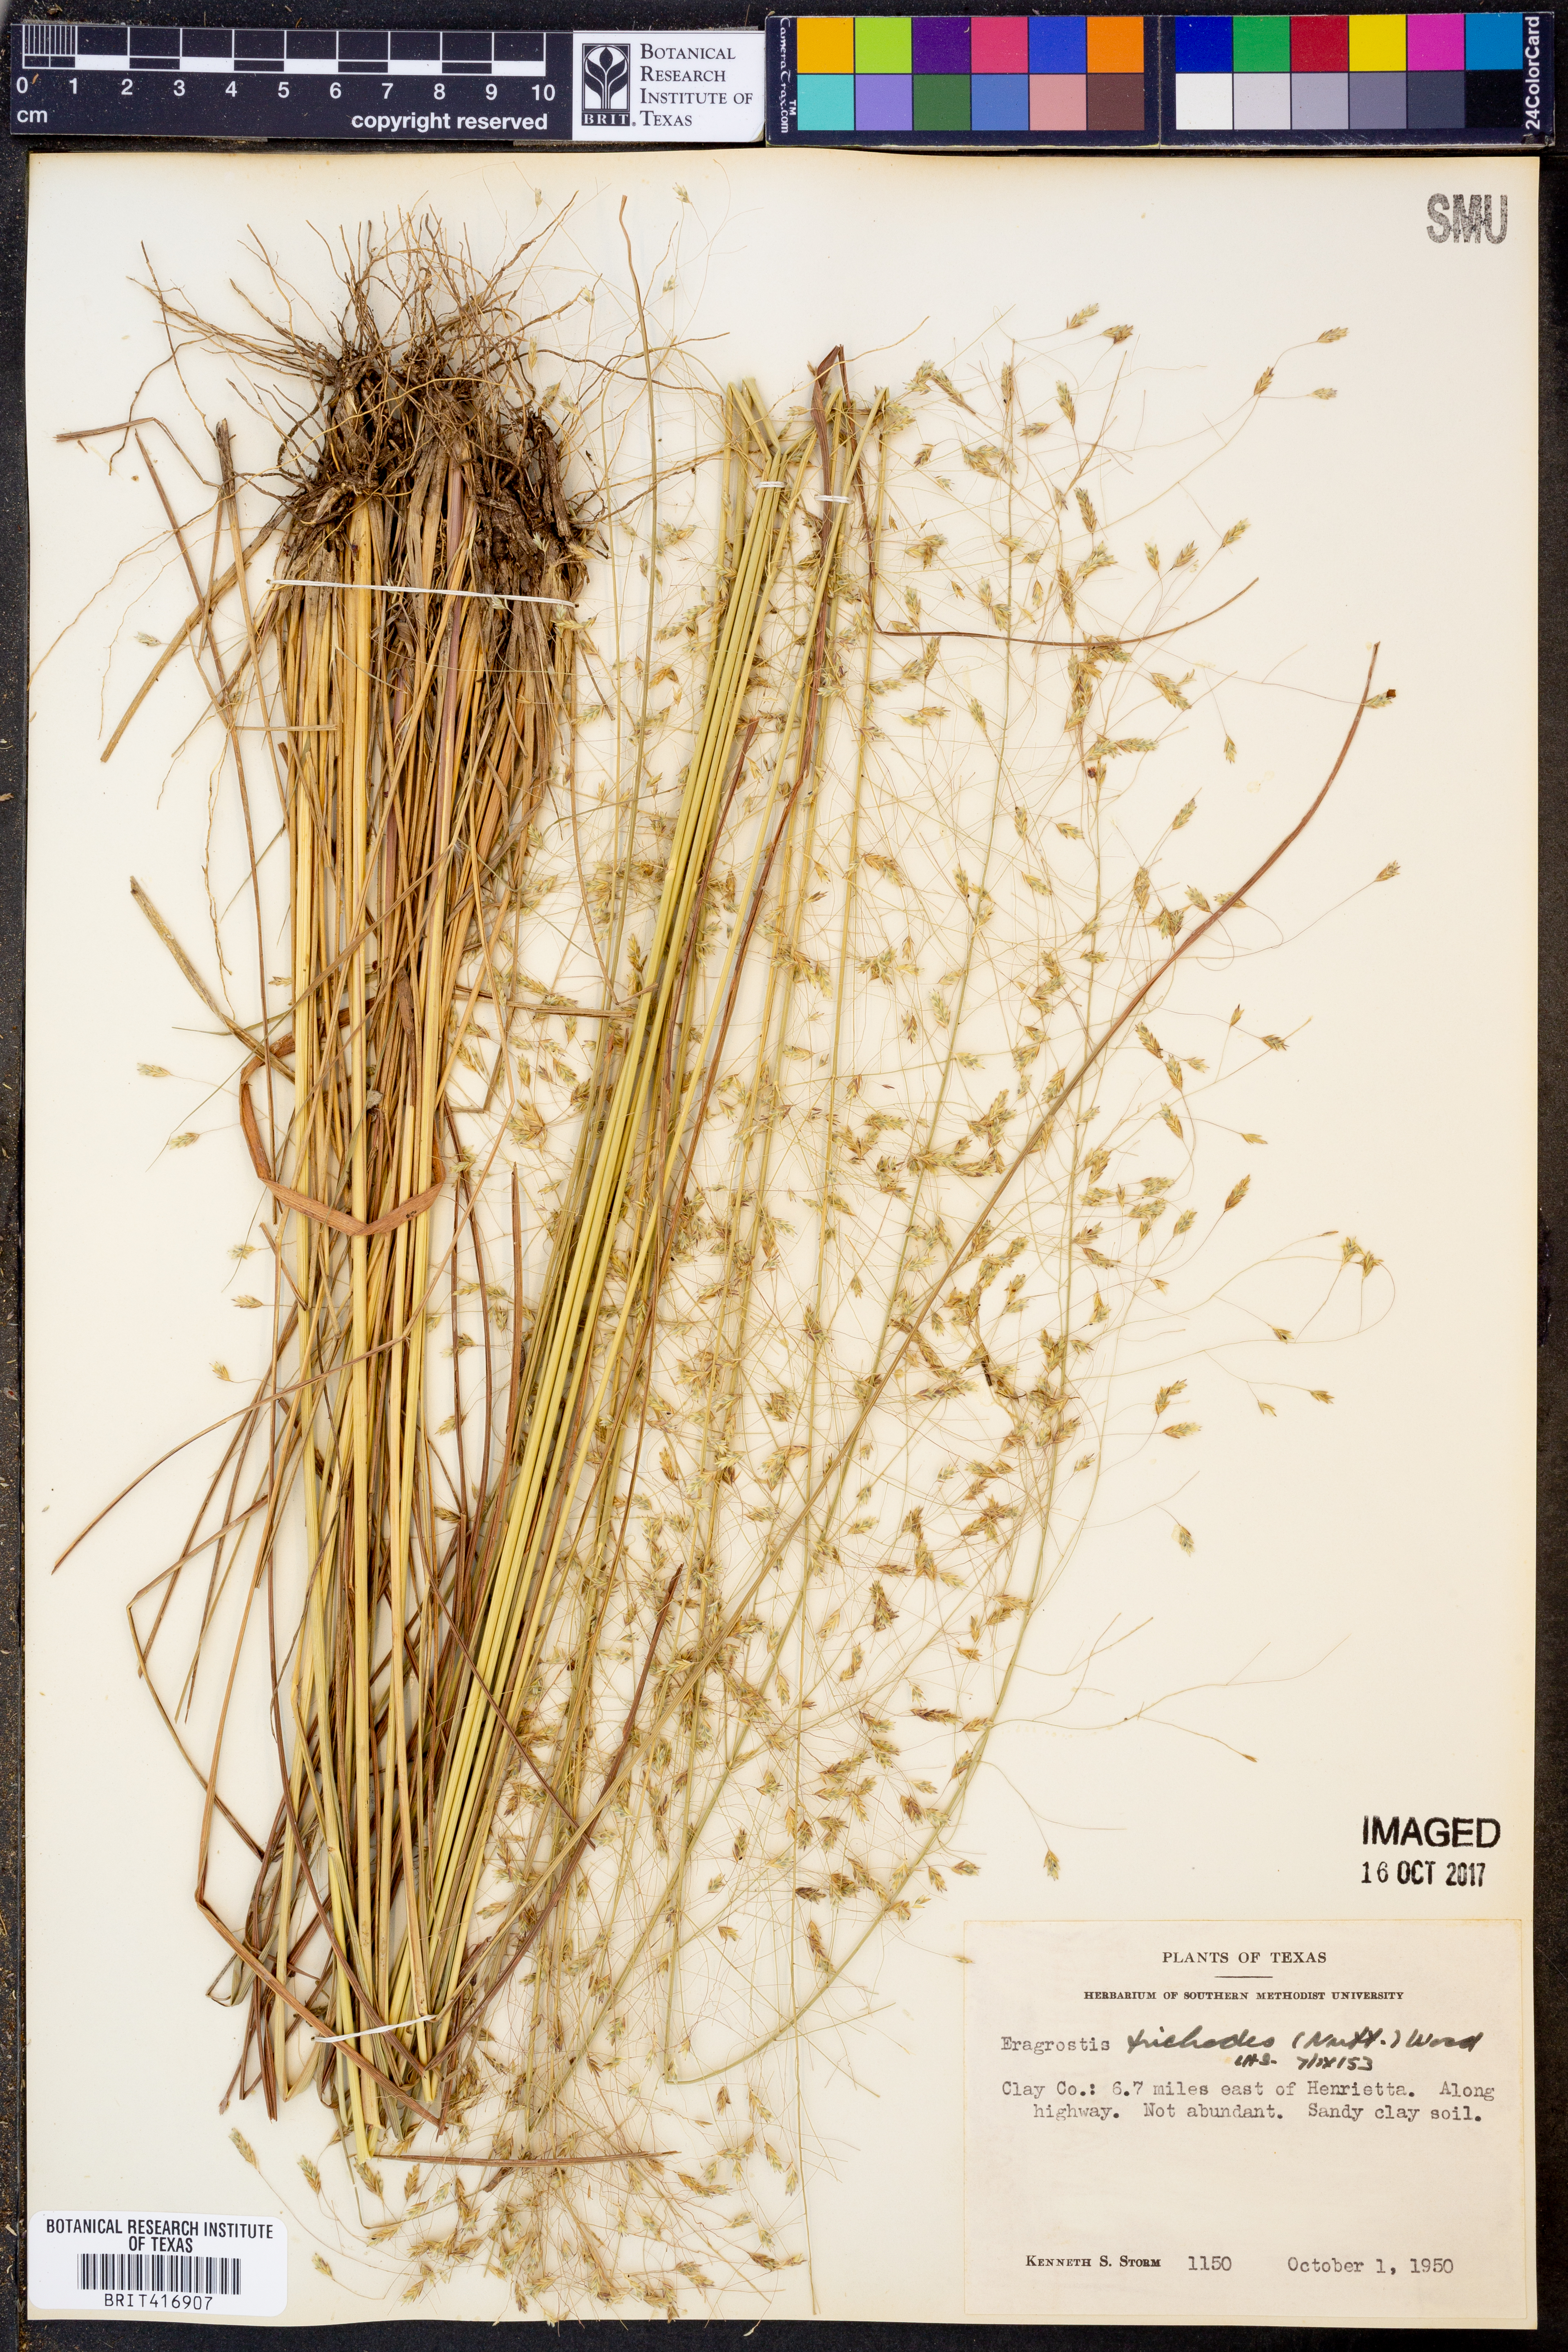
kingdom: Plantae
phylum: Tracheophyta
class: Liliopsida
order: Poales
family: Poaceae
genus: Eragrostis
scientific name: Eragrostis trichodes
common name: Sand love grass
